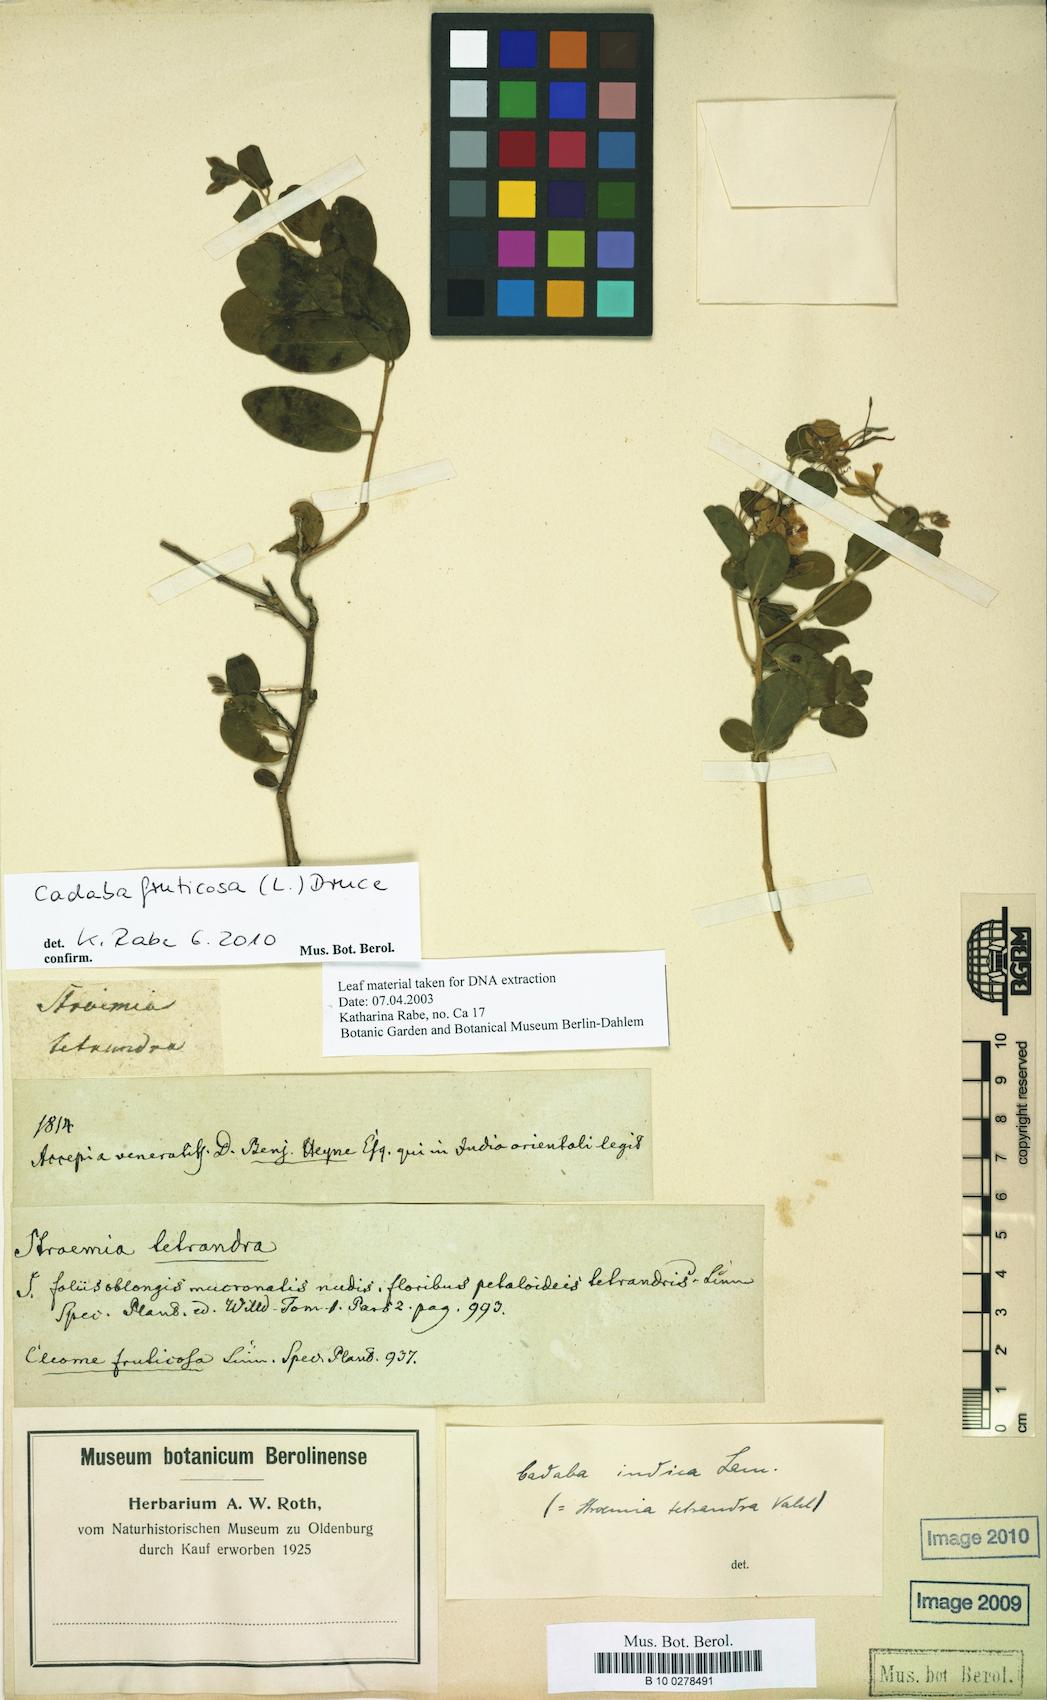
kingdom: Plantae
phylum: Tracheophyta
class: Magnoliopsida
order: Brassicales
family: Capparaceae
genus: Cadaba
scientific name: Cadaba fruticosa
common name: Indian cadaba
